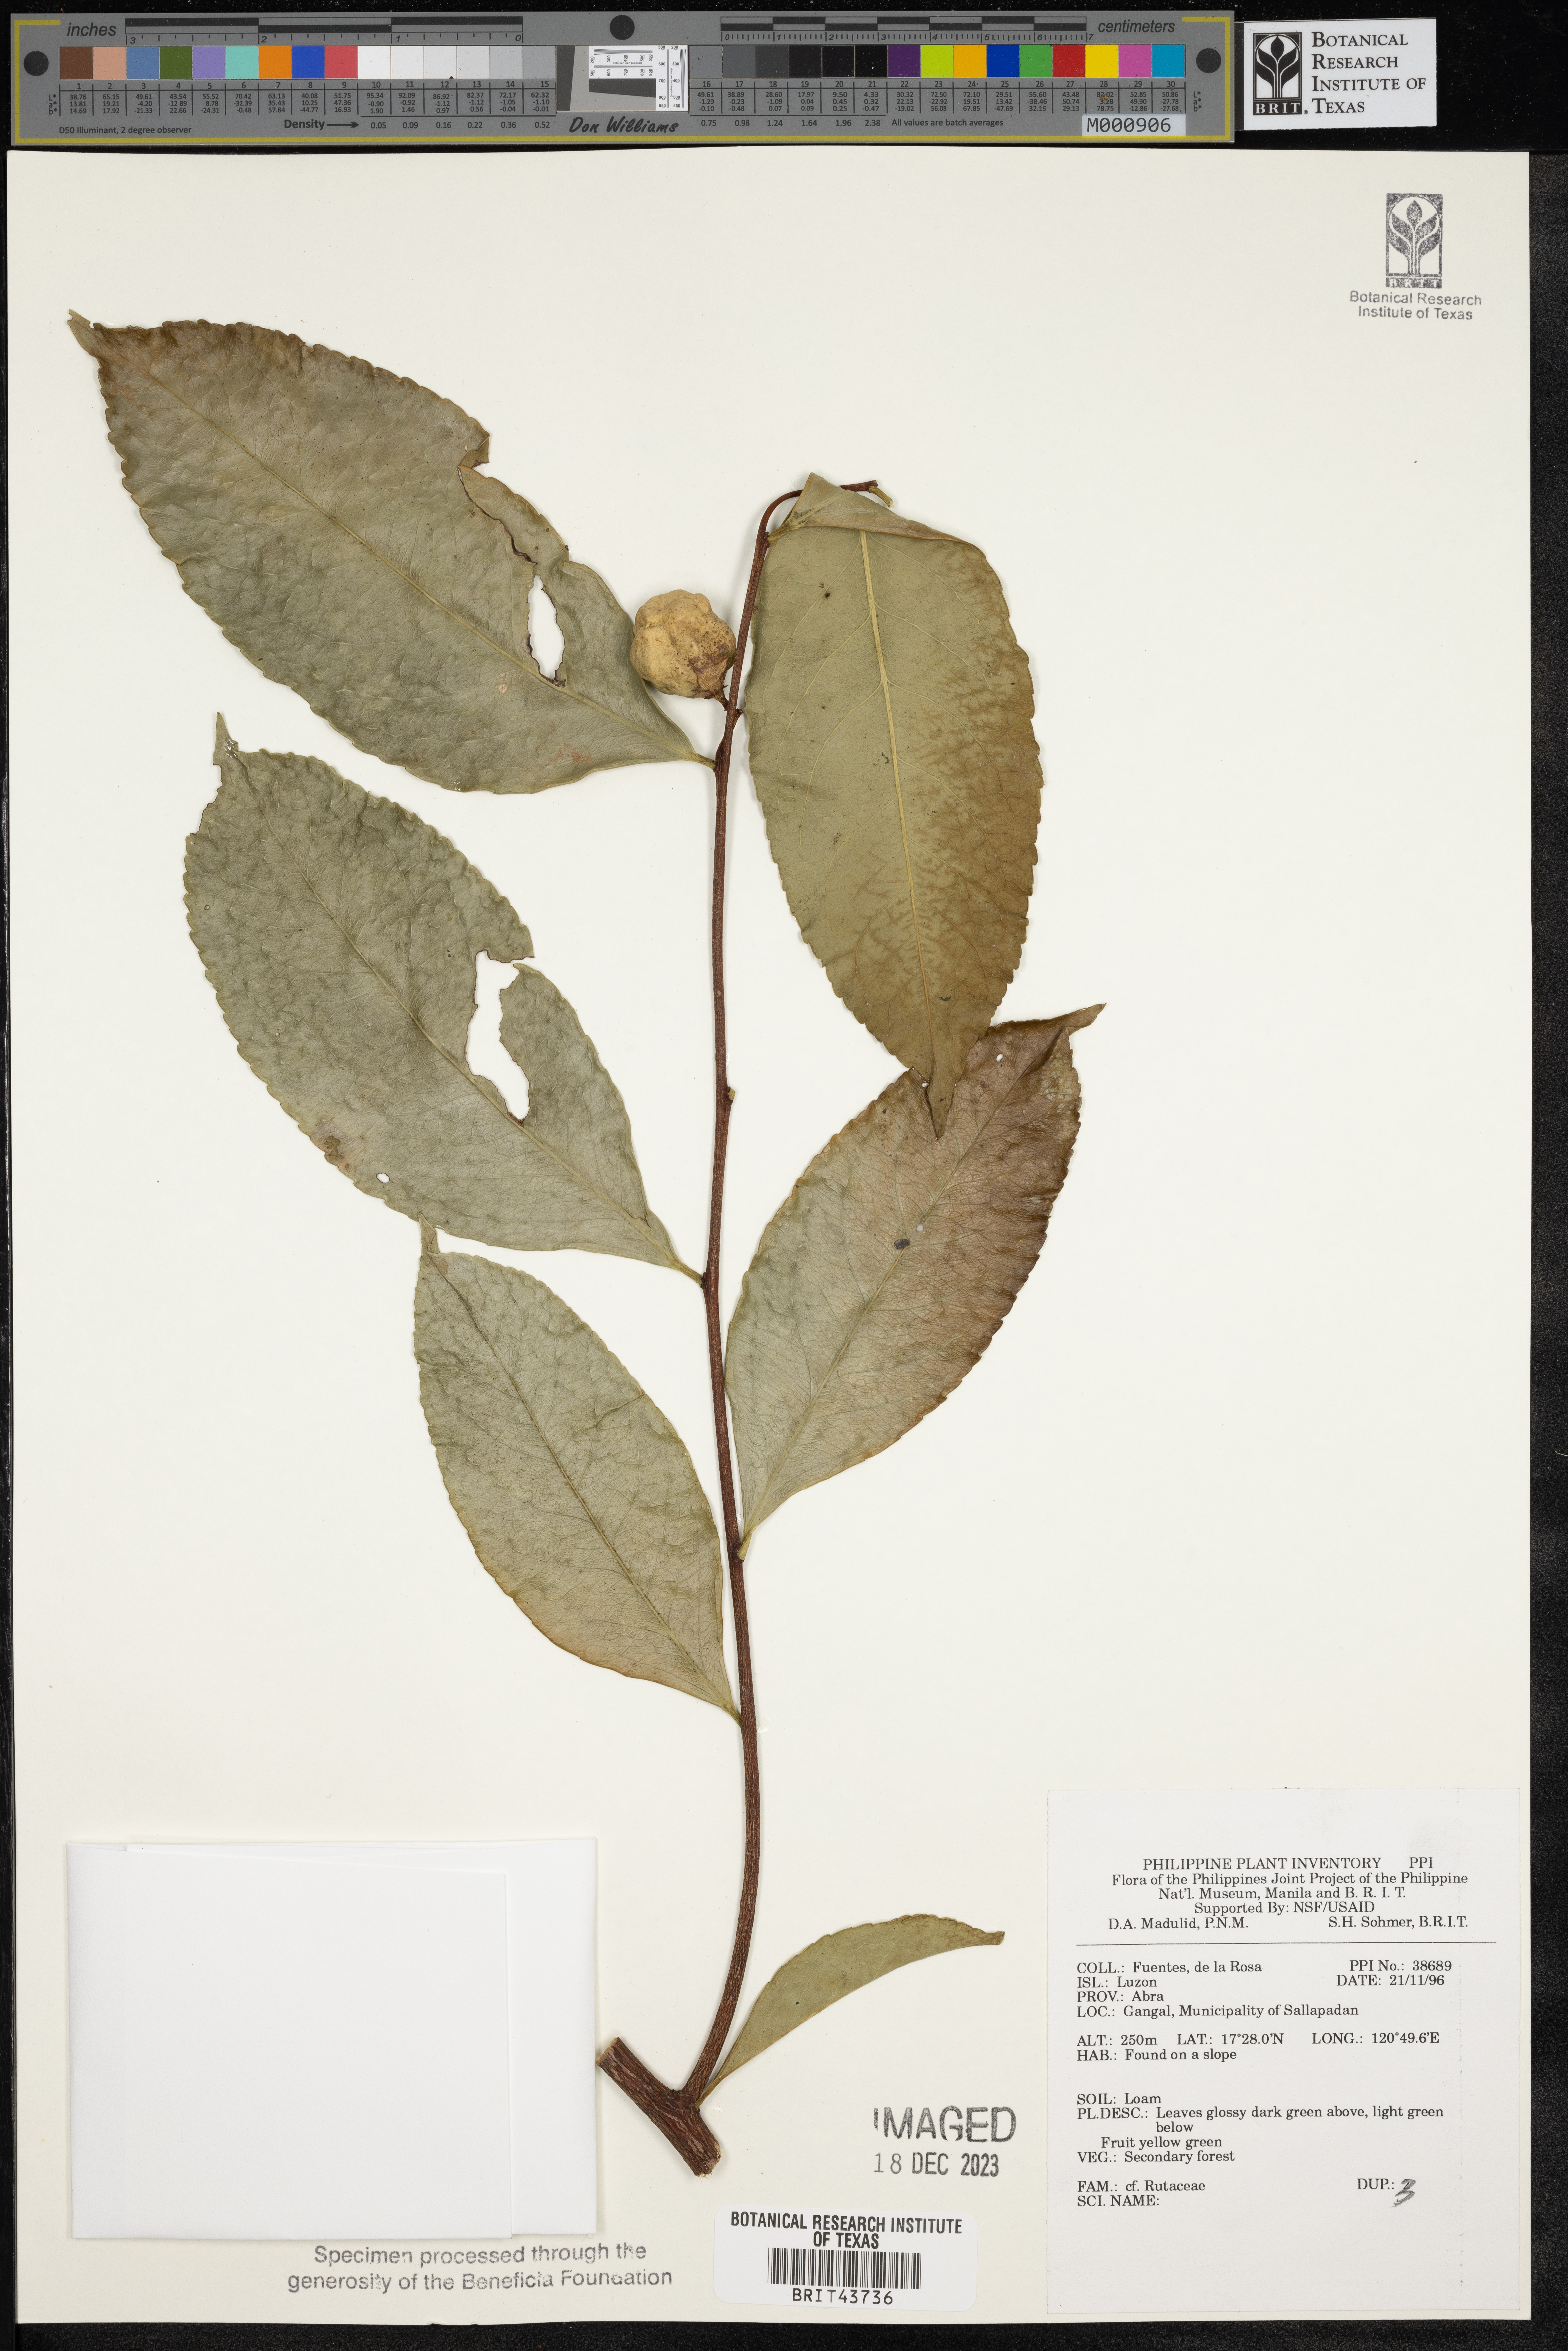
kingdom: Plantae
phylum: Tracheophyta
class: Magnoliopsida
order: Sapindales
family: Rutaceae
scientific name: Rutaceae
